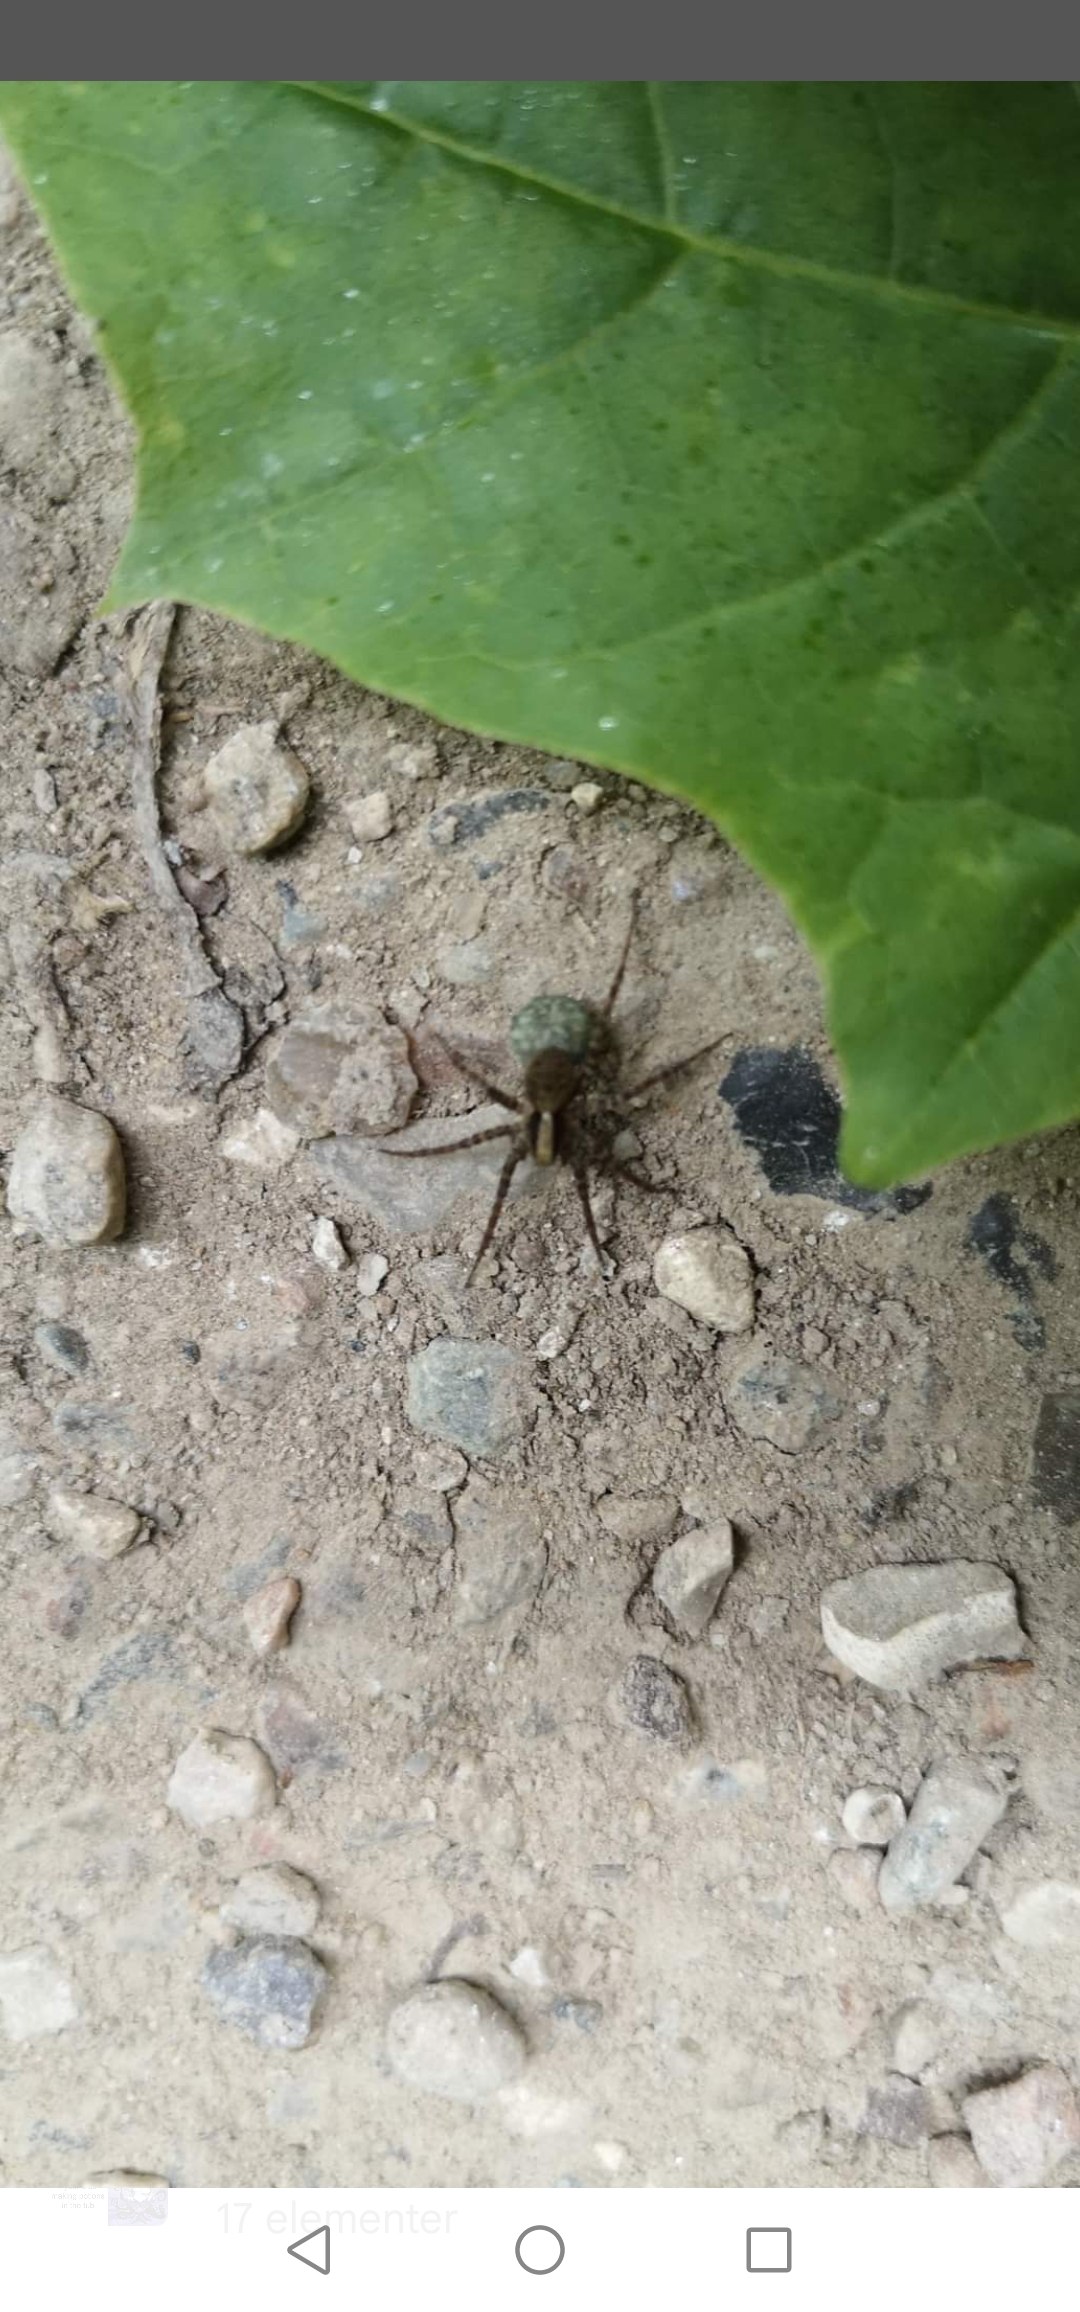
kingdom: Animalia
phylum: Arthropoda
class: Arachnida
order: Araneae
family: Lycosidae
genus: Pardosa
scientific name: Pardosa
